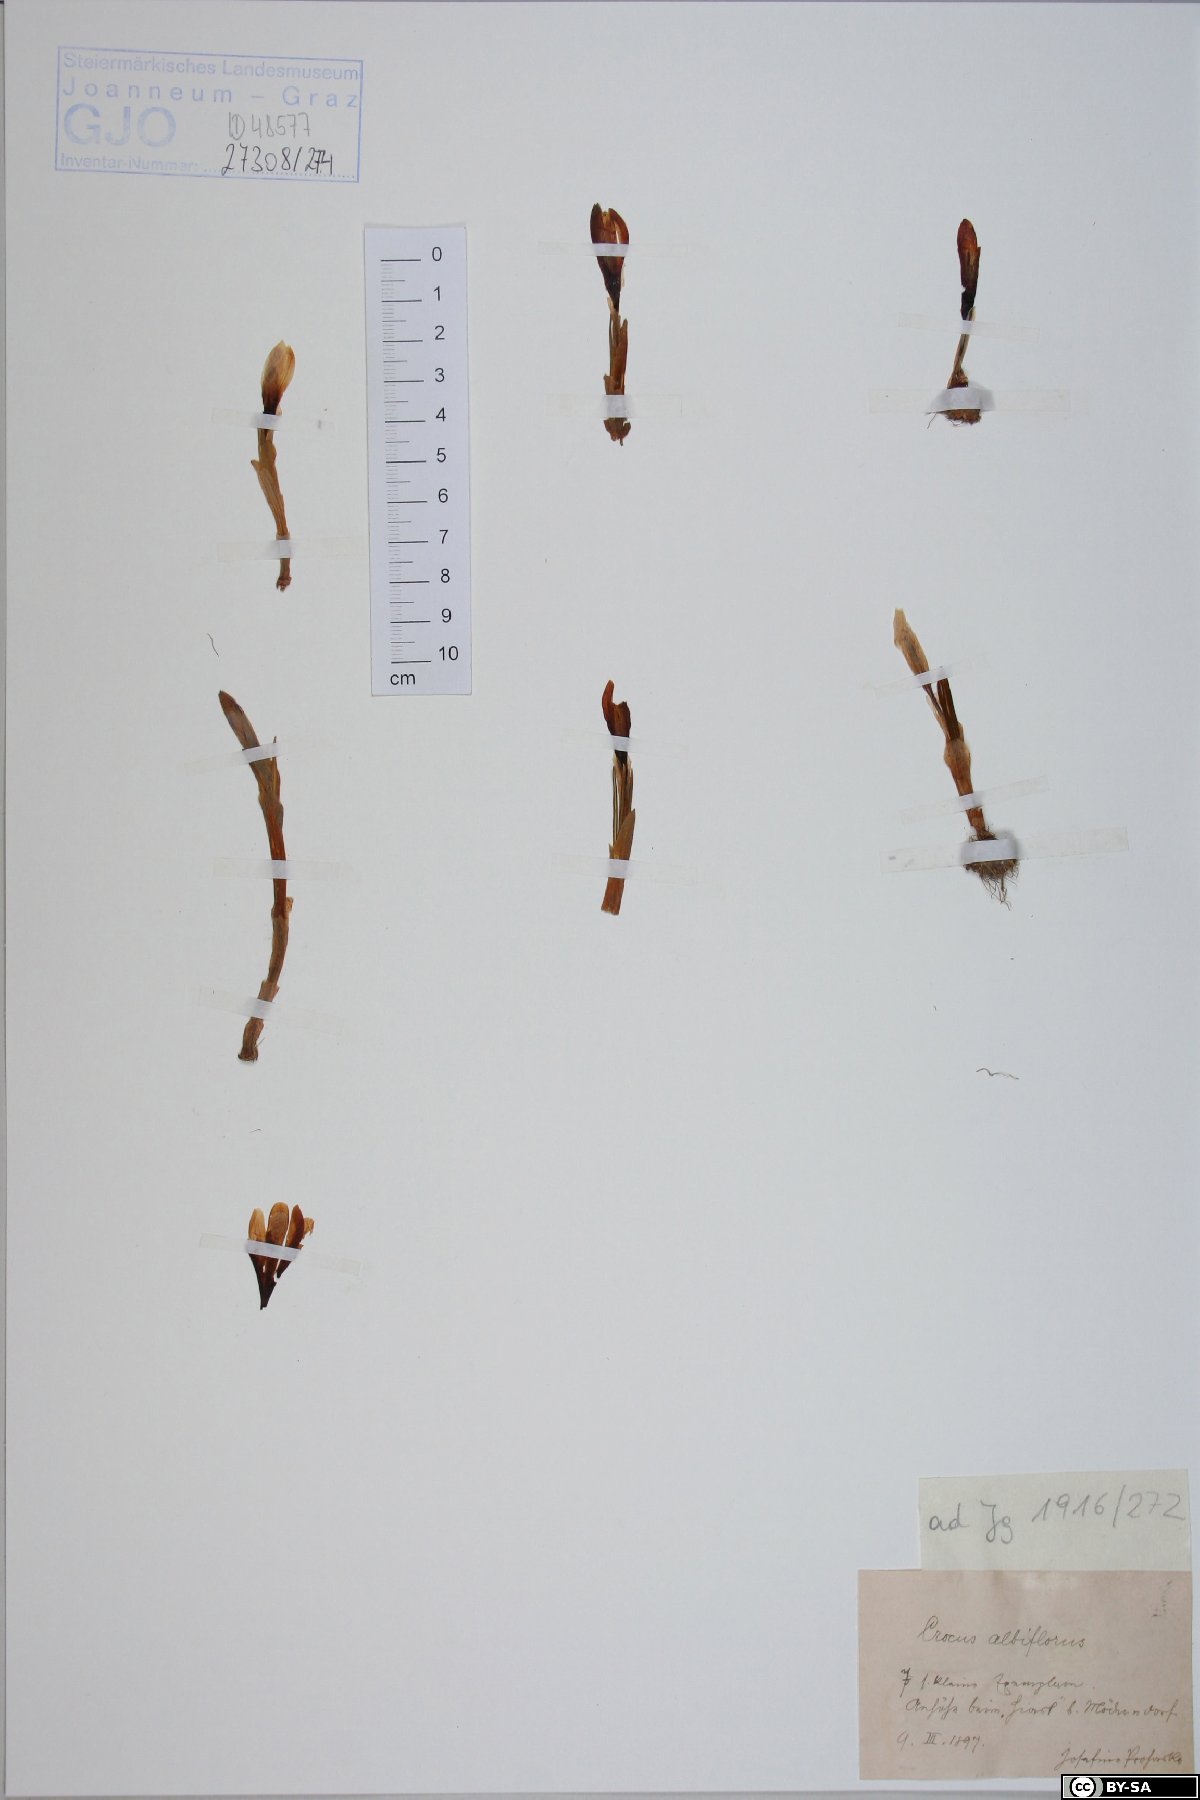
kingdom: Plantae
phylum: Tracheophyta
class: Liliopsida
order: Asparagales
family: Iridaceae
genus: Crocus
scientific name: Crocus vernus
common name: Spring crocus
